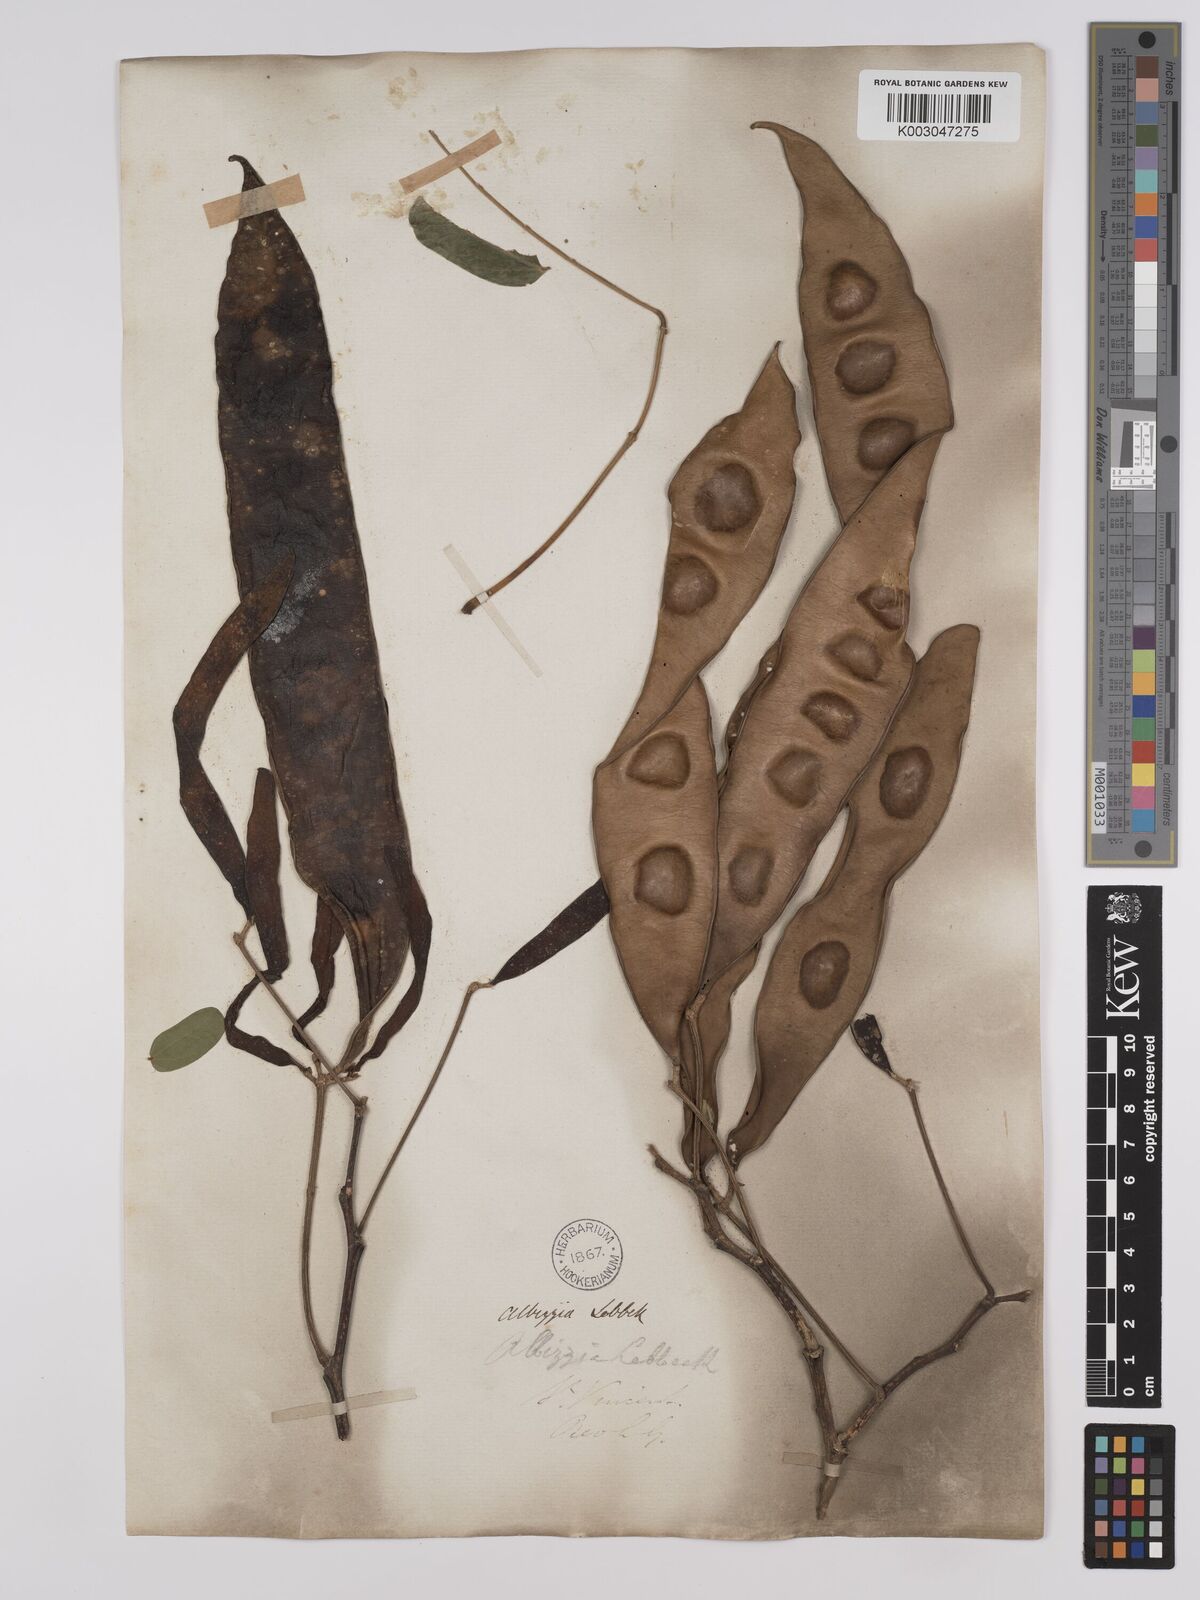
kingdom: Plantae
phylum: Tracheophyta
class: Magnoliopsida
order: Fabales
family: Fabaceae
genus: Albizia
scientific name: Albizia lebbeck
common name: Woman's tongue
